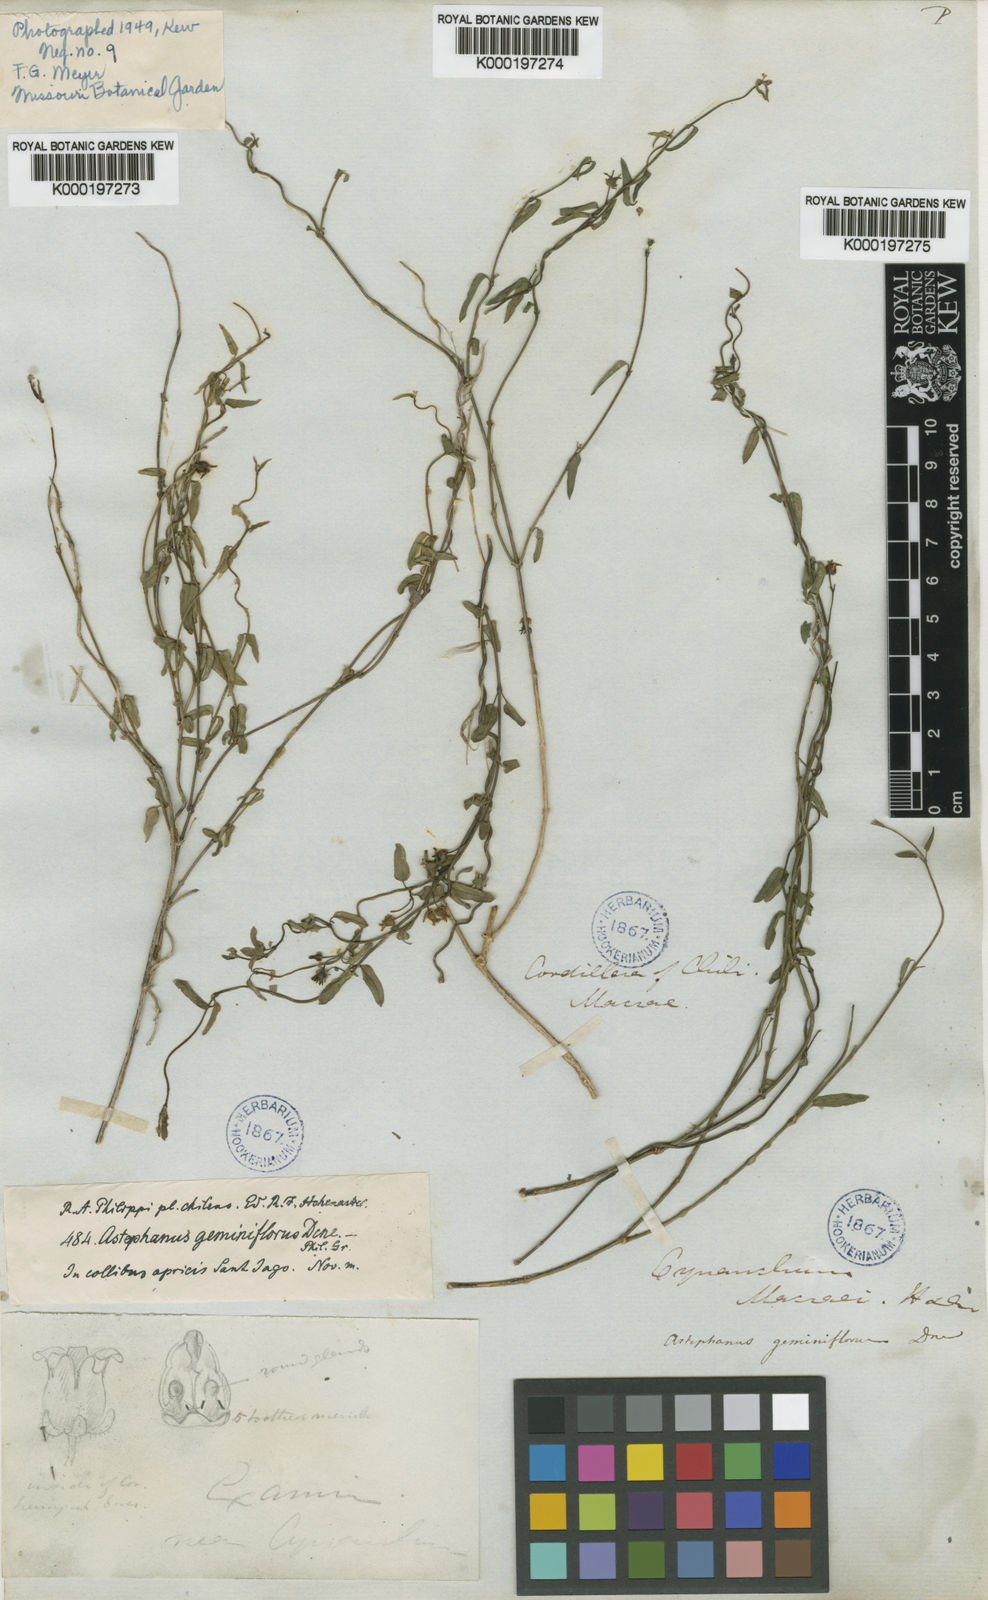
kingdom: Plantae
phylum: Tracheophyta
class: Magnoliopsida
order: Gentianales
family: Apocynaceae
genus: Diplolepis
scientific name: Diplolepis geminiflora
